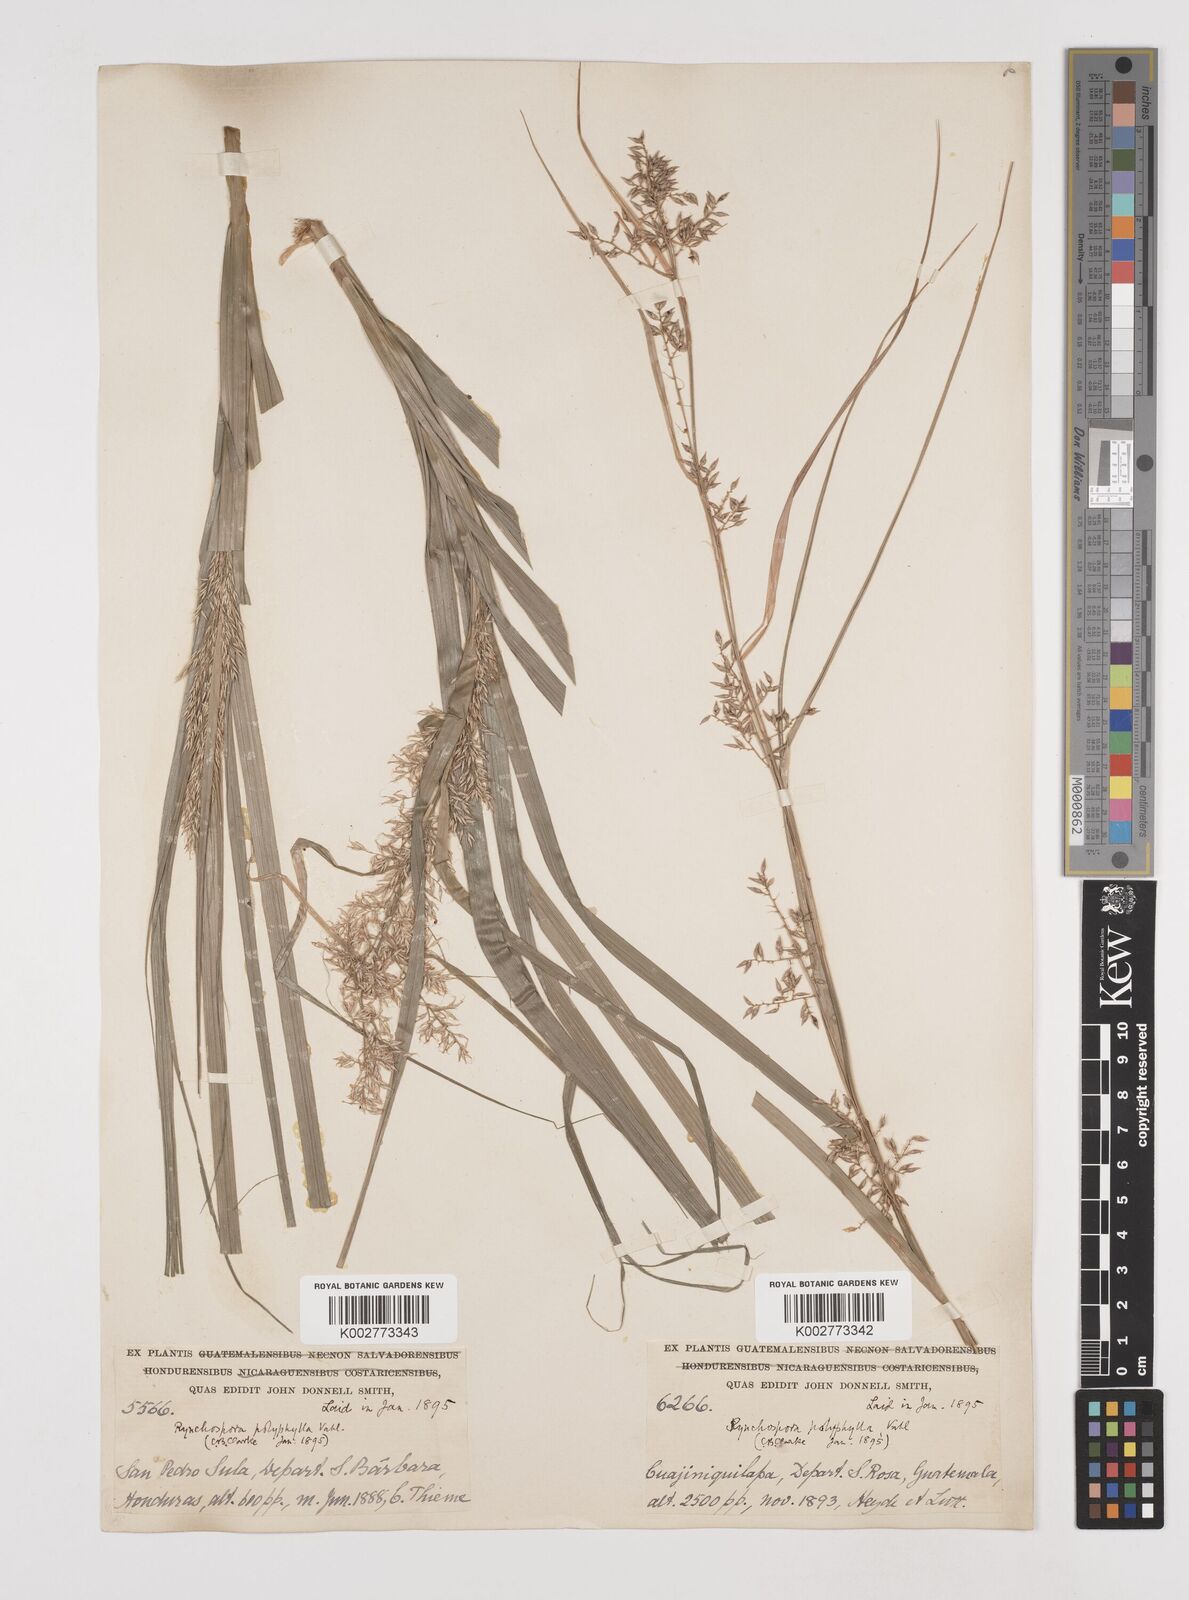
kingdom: Plantae
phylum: Tracheophyta
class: Liliopsida
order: Poales
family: Cyperaceae
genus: Rhynchospora
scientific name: Rhynchospora polyphylla
